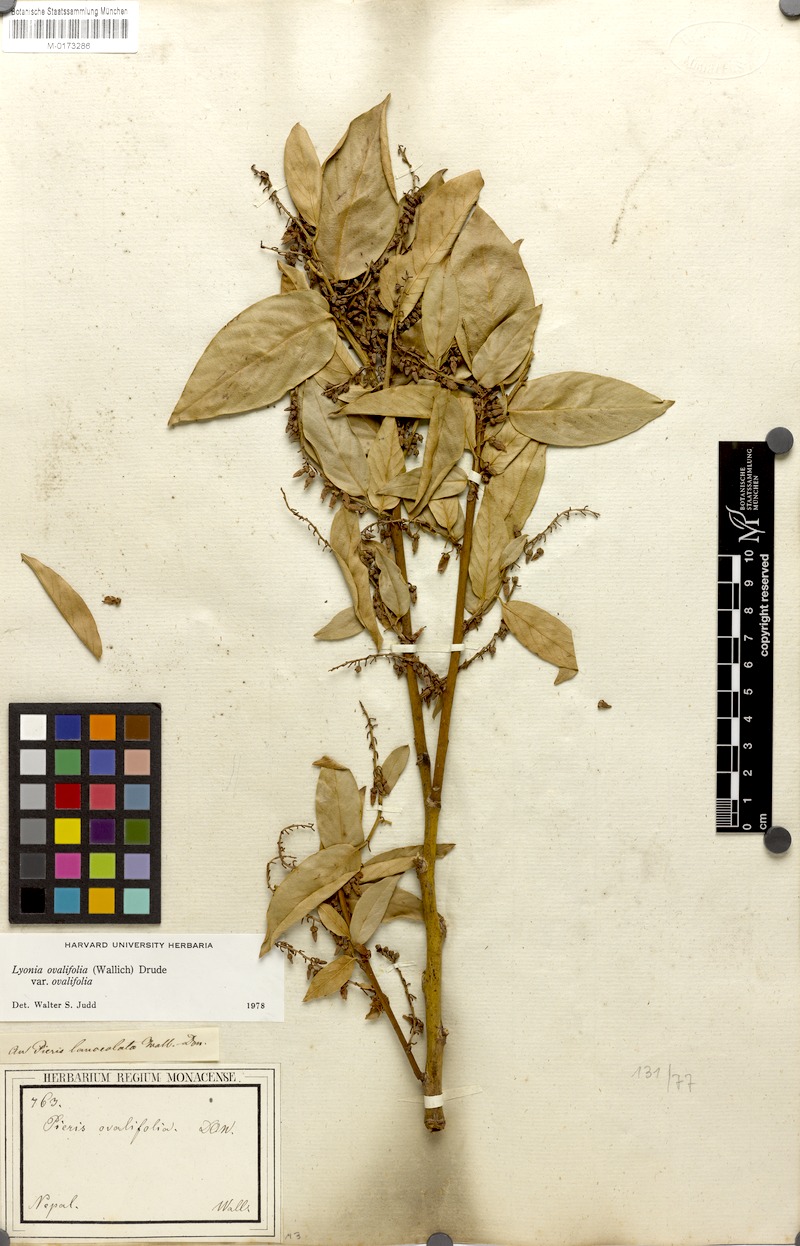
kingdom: Plantae
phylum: Tracheophyta
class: Magnoliopsida
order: Ericales
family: Ericaceae
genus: Lyonia
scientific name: Lyonia ovalifolia
